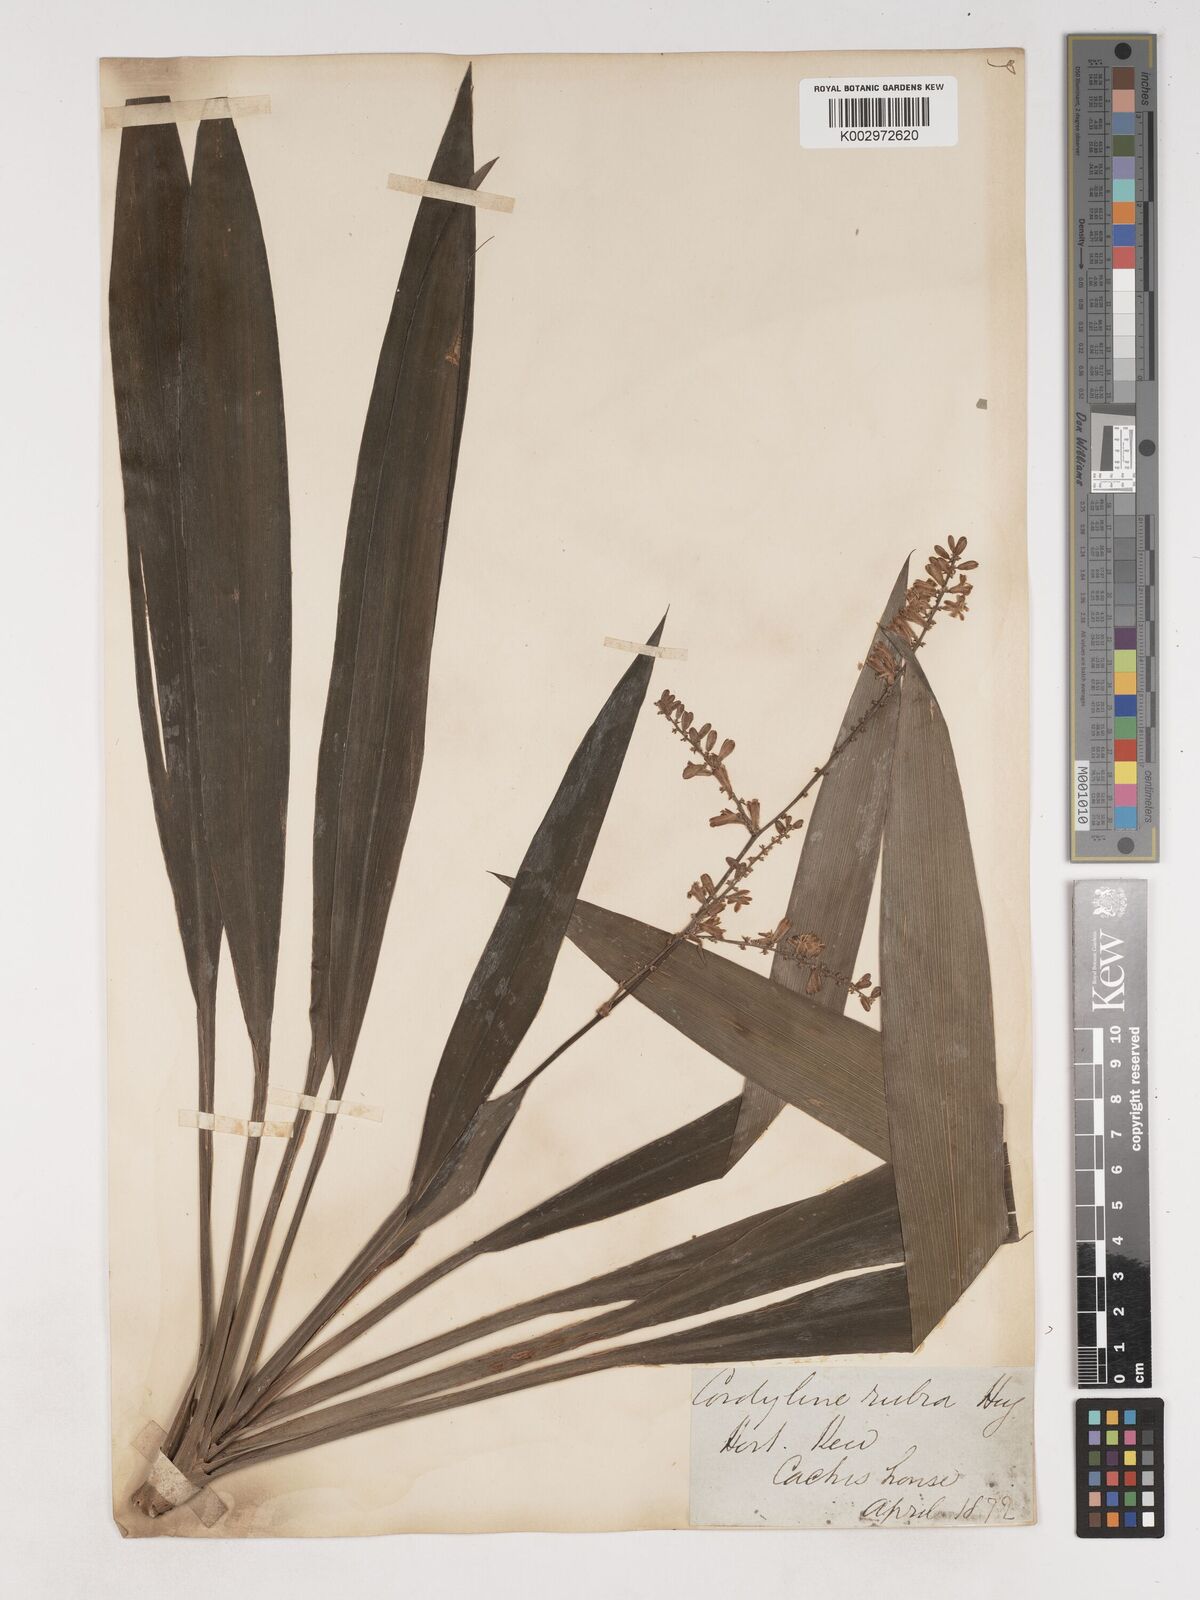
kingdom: Plantae
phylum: Tracheophyta
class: Liliopsida
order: Asparagales
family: Asparagaceae
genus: Cordyline
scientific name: Cordyline rubra
